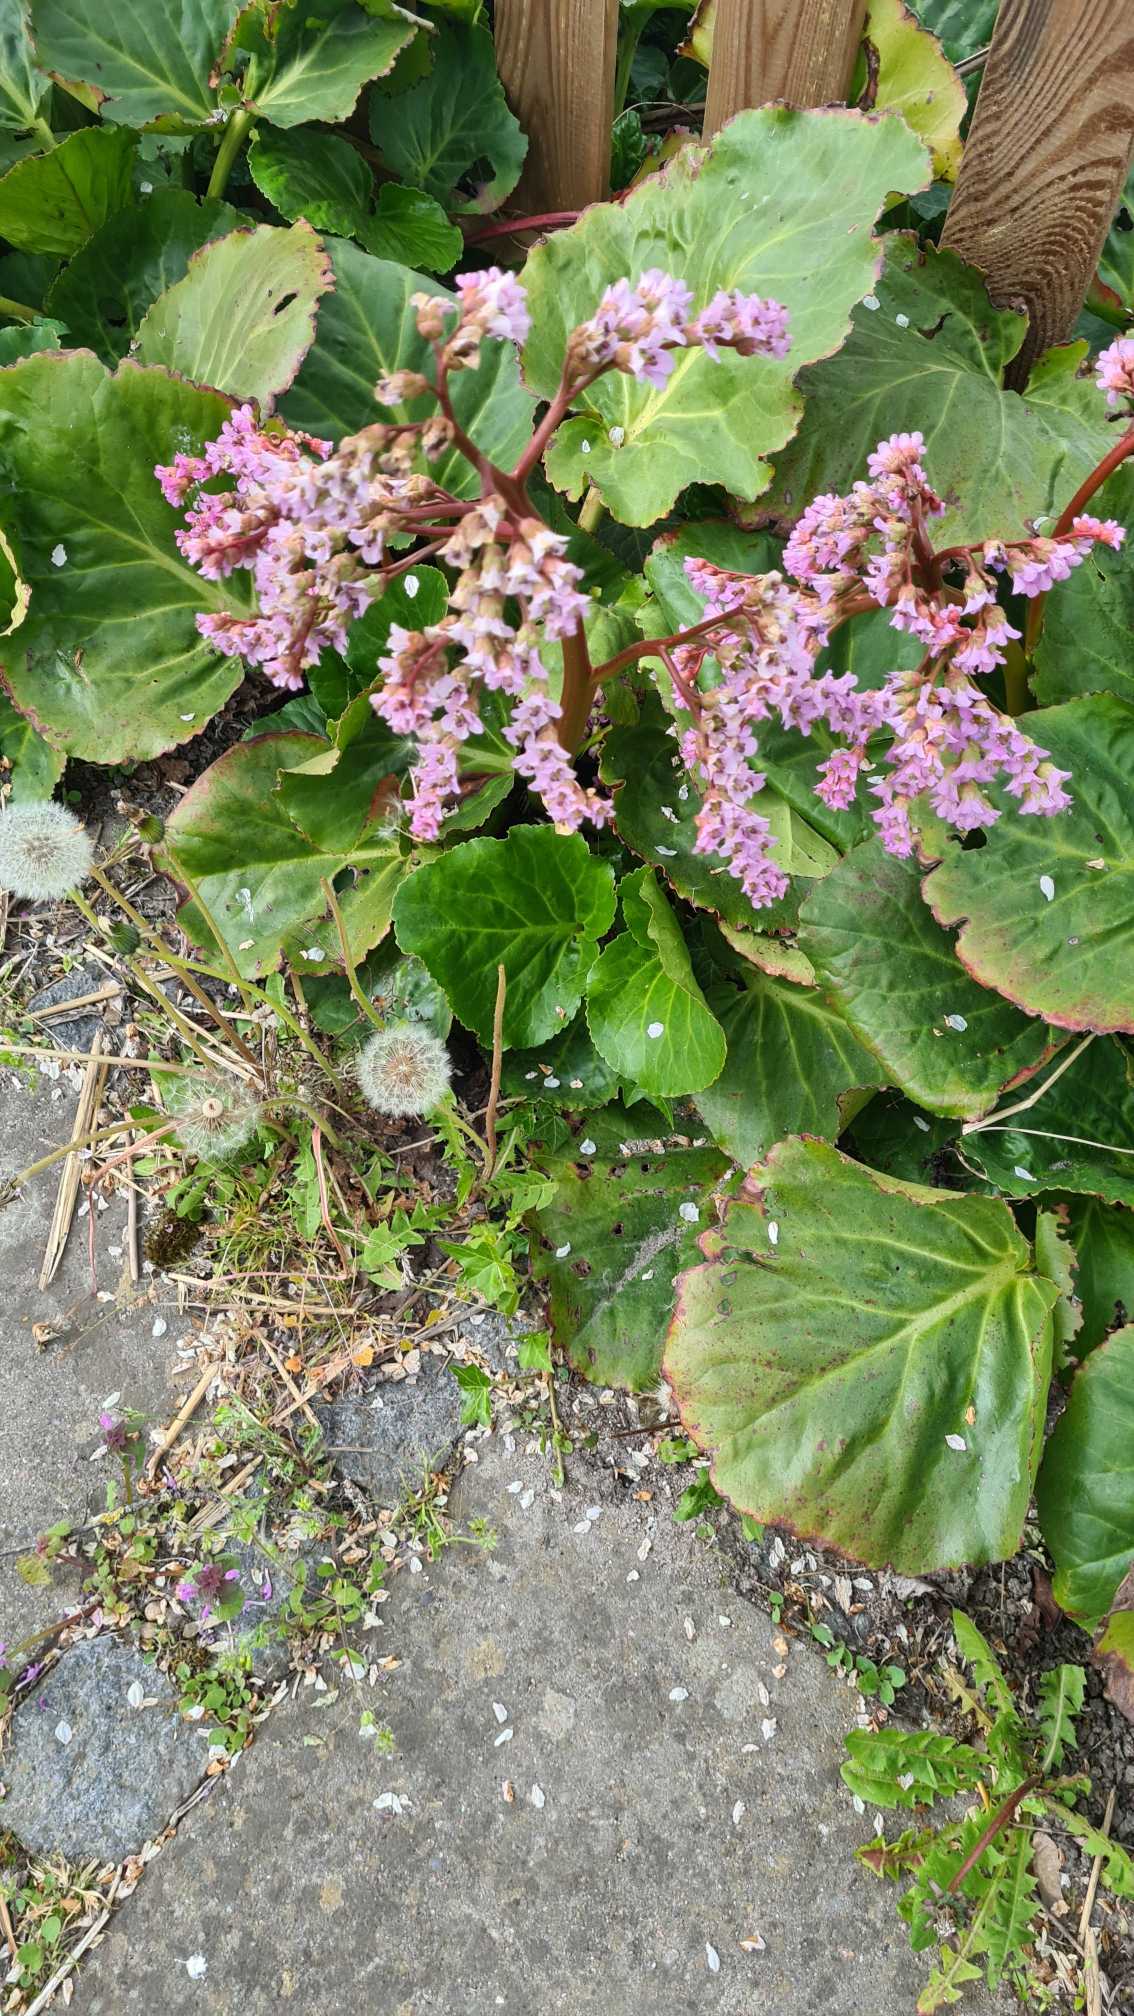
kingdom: Plantae
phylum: Tracheophyta
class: Magnoliopsida
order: Saxifragales
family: Saxifragaceae
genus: Bergenia
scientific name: Bergenia crassifolia
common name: Almindelig kæmpestenbræk
